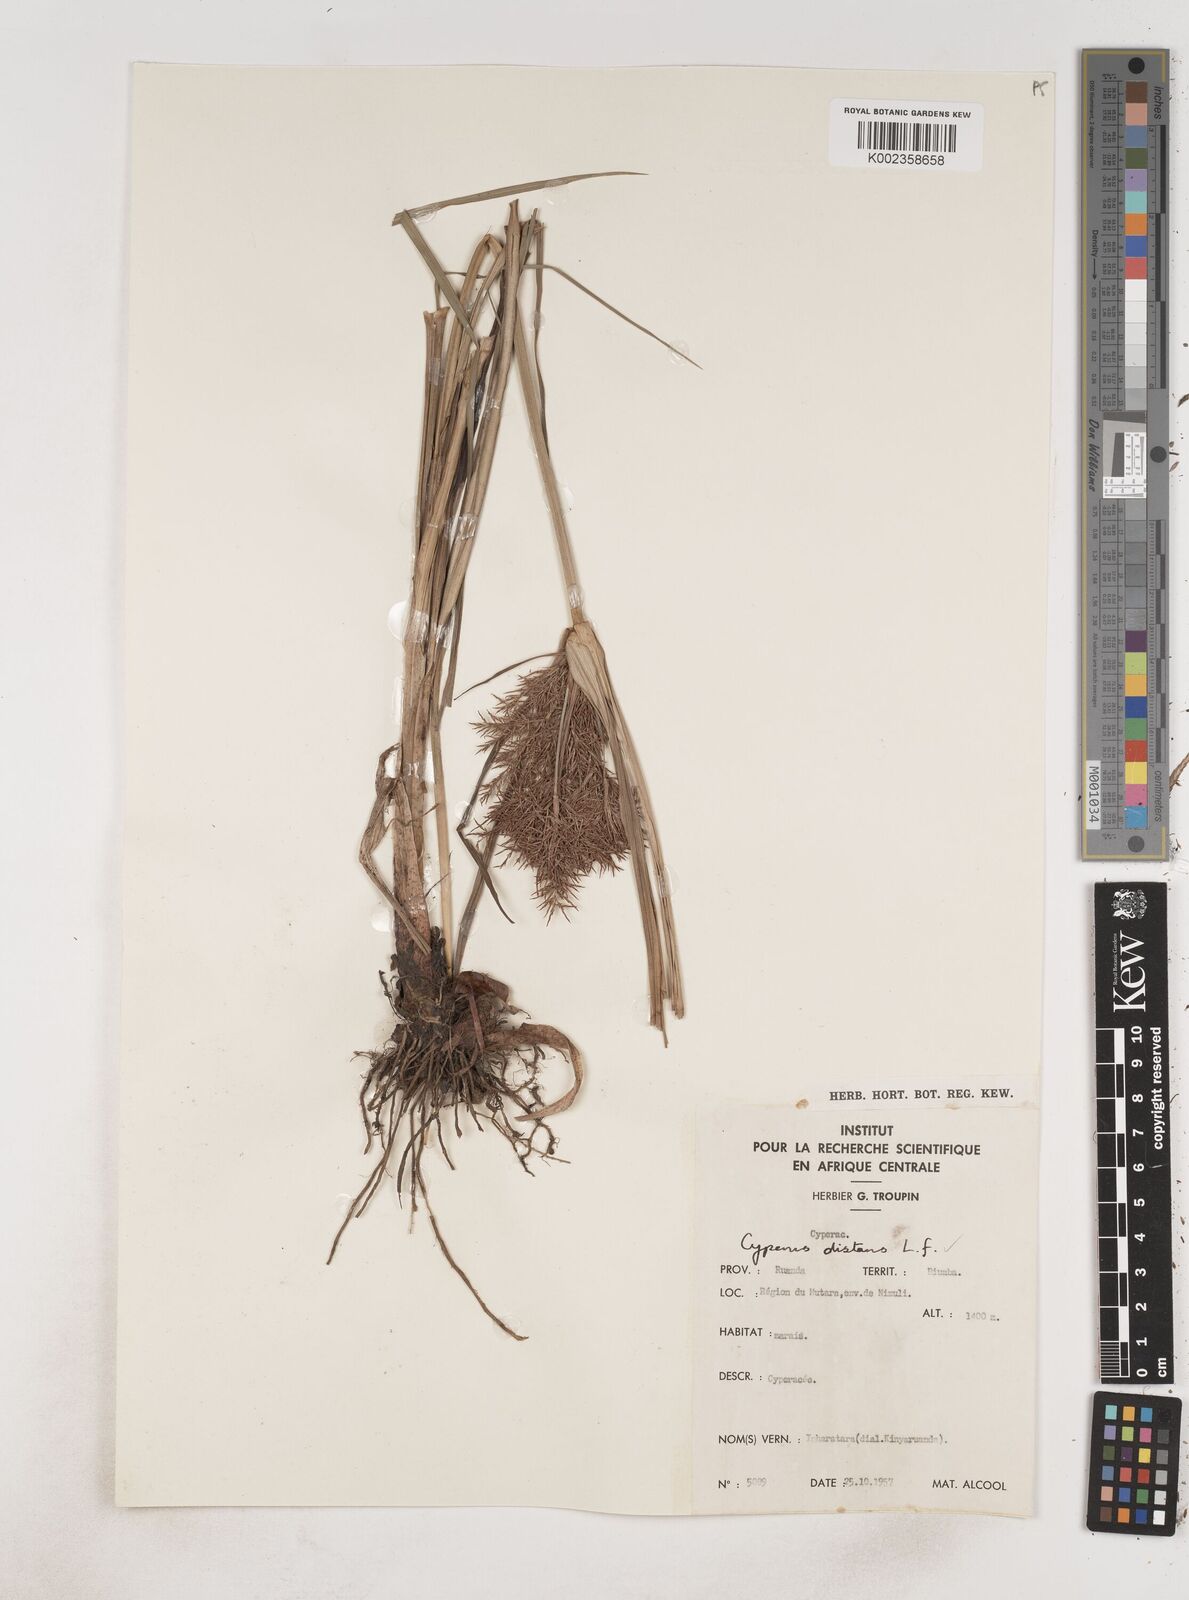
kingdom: Plantae
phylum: Tracheophyta
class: Liliopsida
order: Poales
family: Cyperaceae
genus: Cyperus
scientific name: Cyperus distans
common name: Slender cyperus
